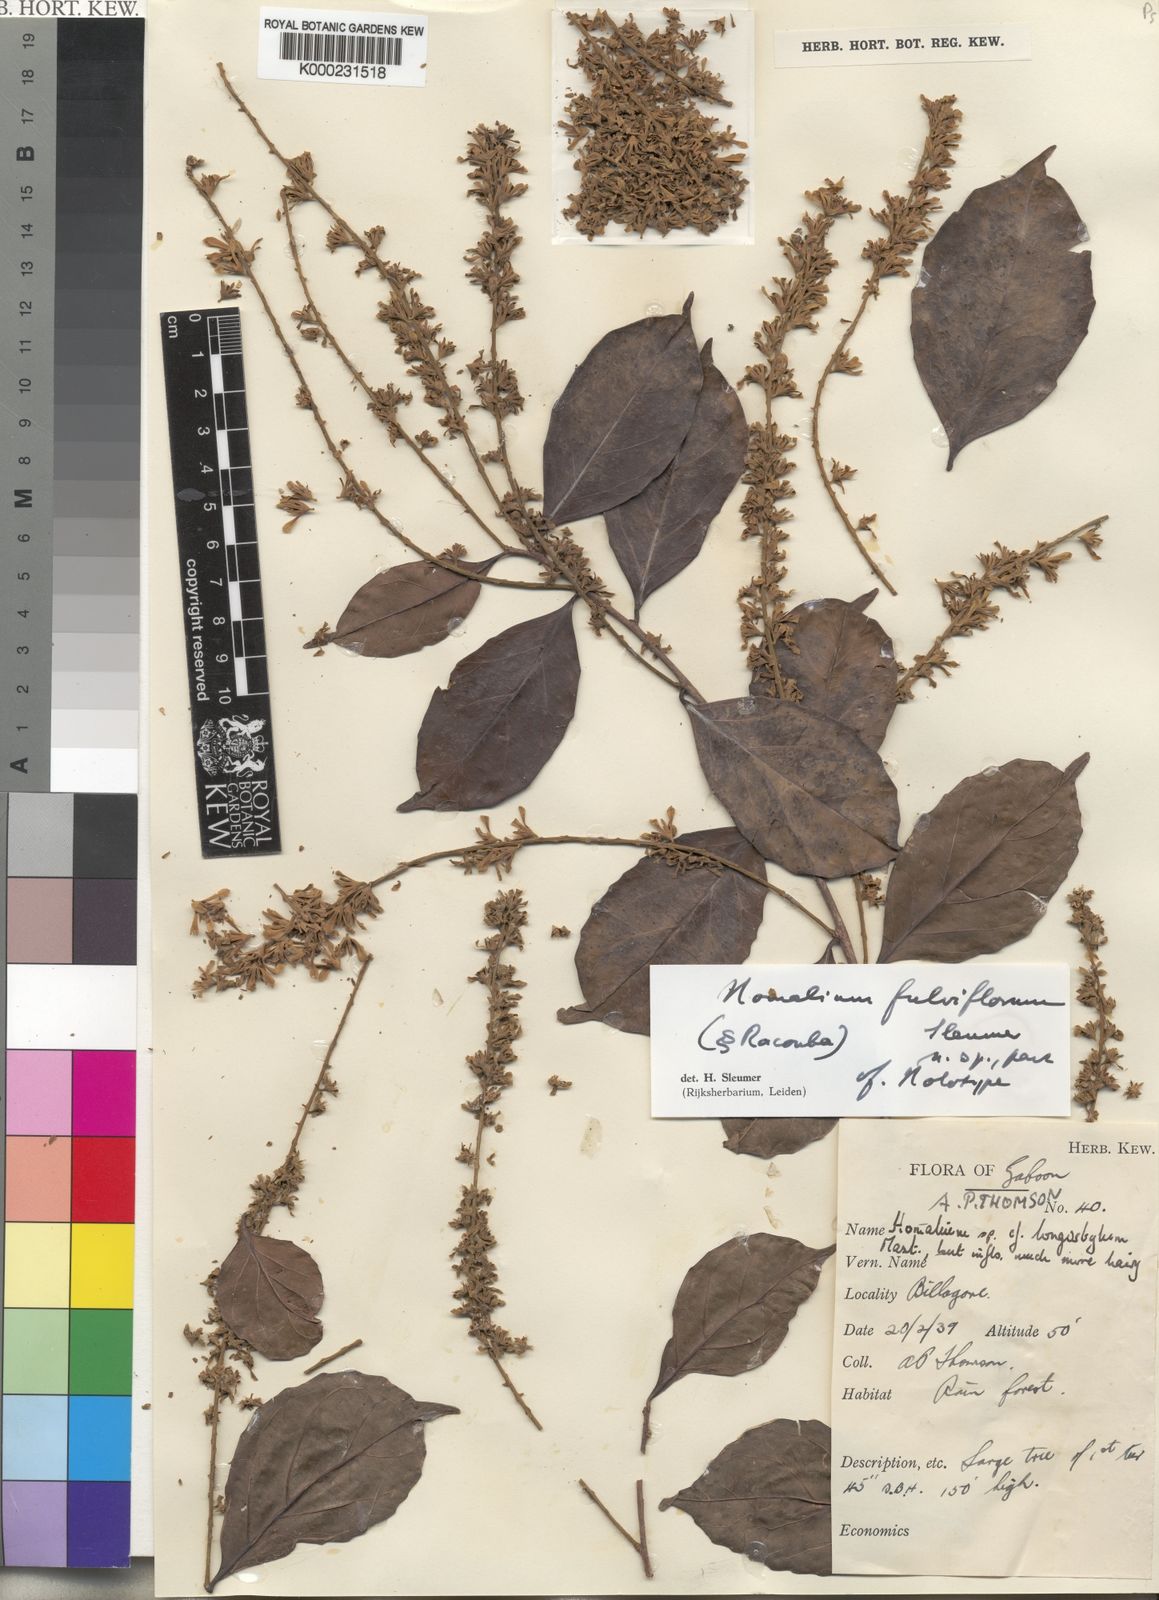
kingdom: Plantae
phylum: Tracheophyta
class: Magnoliopsida
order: Malpighiales
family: Salicaceae
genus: Homalium
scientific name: Homalium fulviflorum
